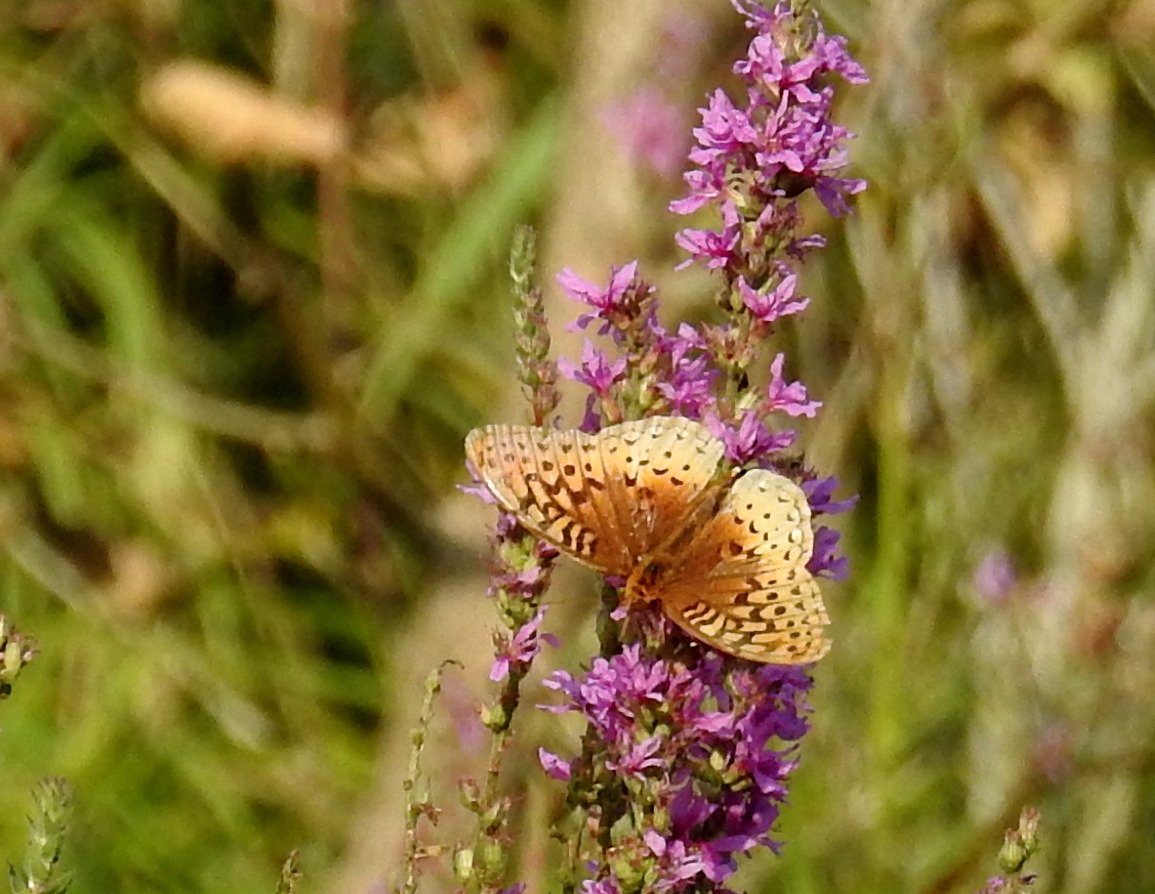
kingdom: Animalia
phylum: Arthropoda
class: Insecta
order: Lepidoptera
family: Nymphalidae
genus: Speyeria
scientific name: Speyeria cybele
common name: Great Spangled Fritillary
